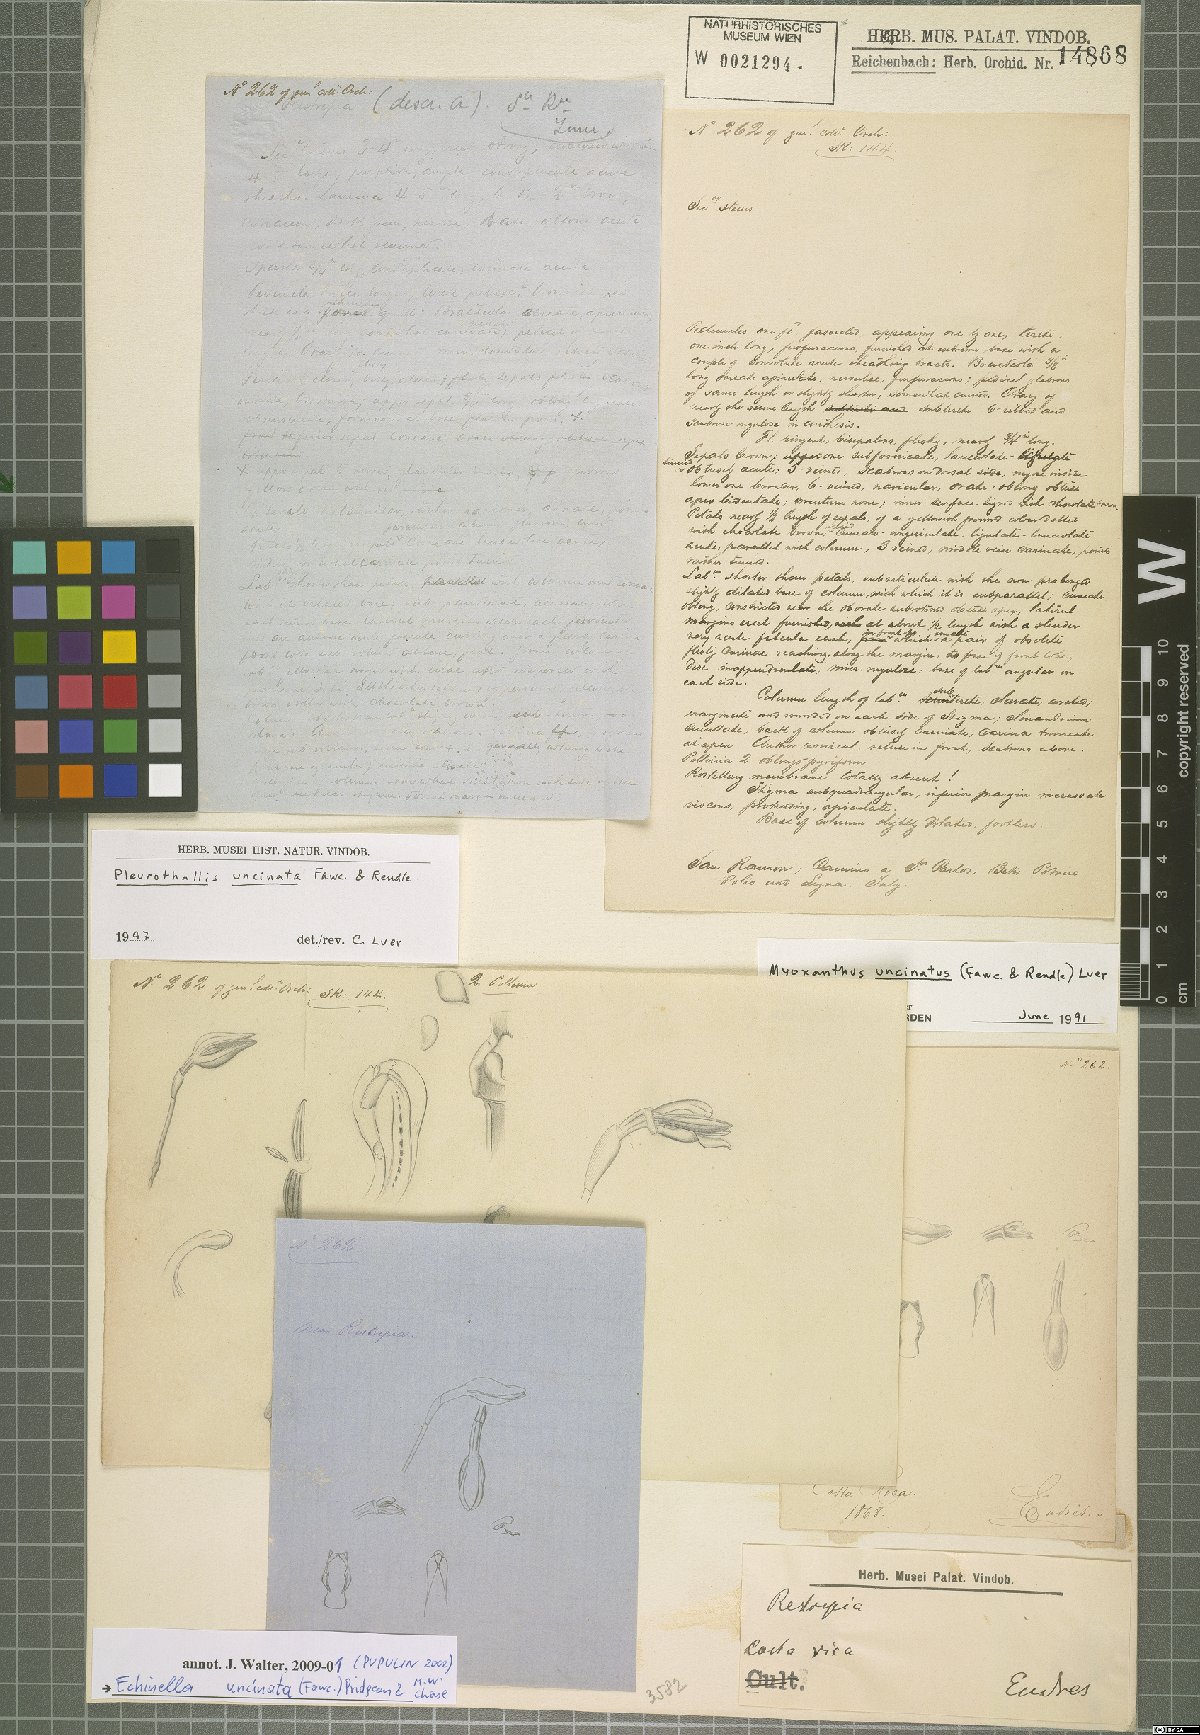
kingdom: Plantae
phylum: Tracheophyta
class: Liliopsida
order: Asparagales
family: Orchidaceae
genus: Echinosepala
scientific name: Echinosepala uncinata
